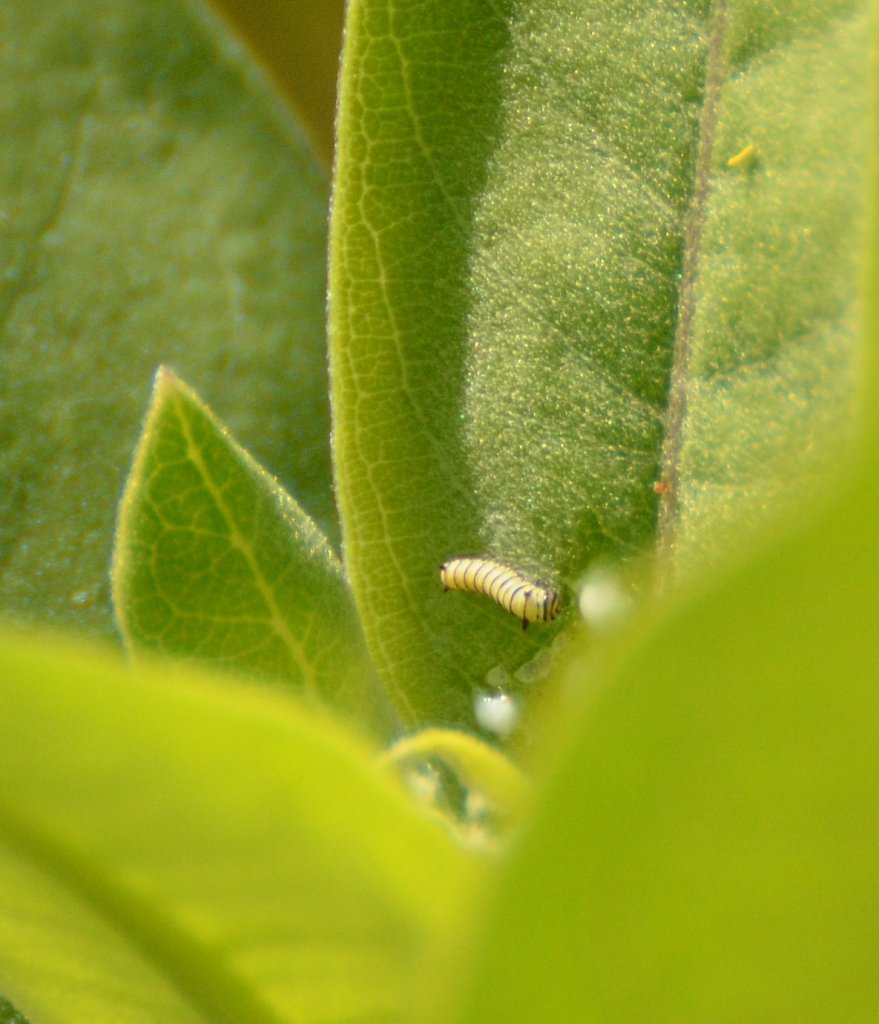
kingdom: Animalia
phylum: Arthropoda
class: Insecta
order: Lepidoptera
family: Nymphalidae
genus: Danaus
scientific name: Danaus plexippus
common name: Monarch
